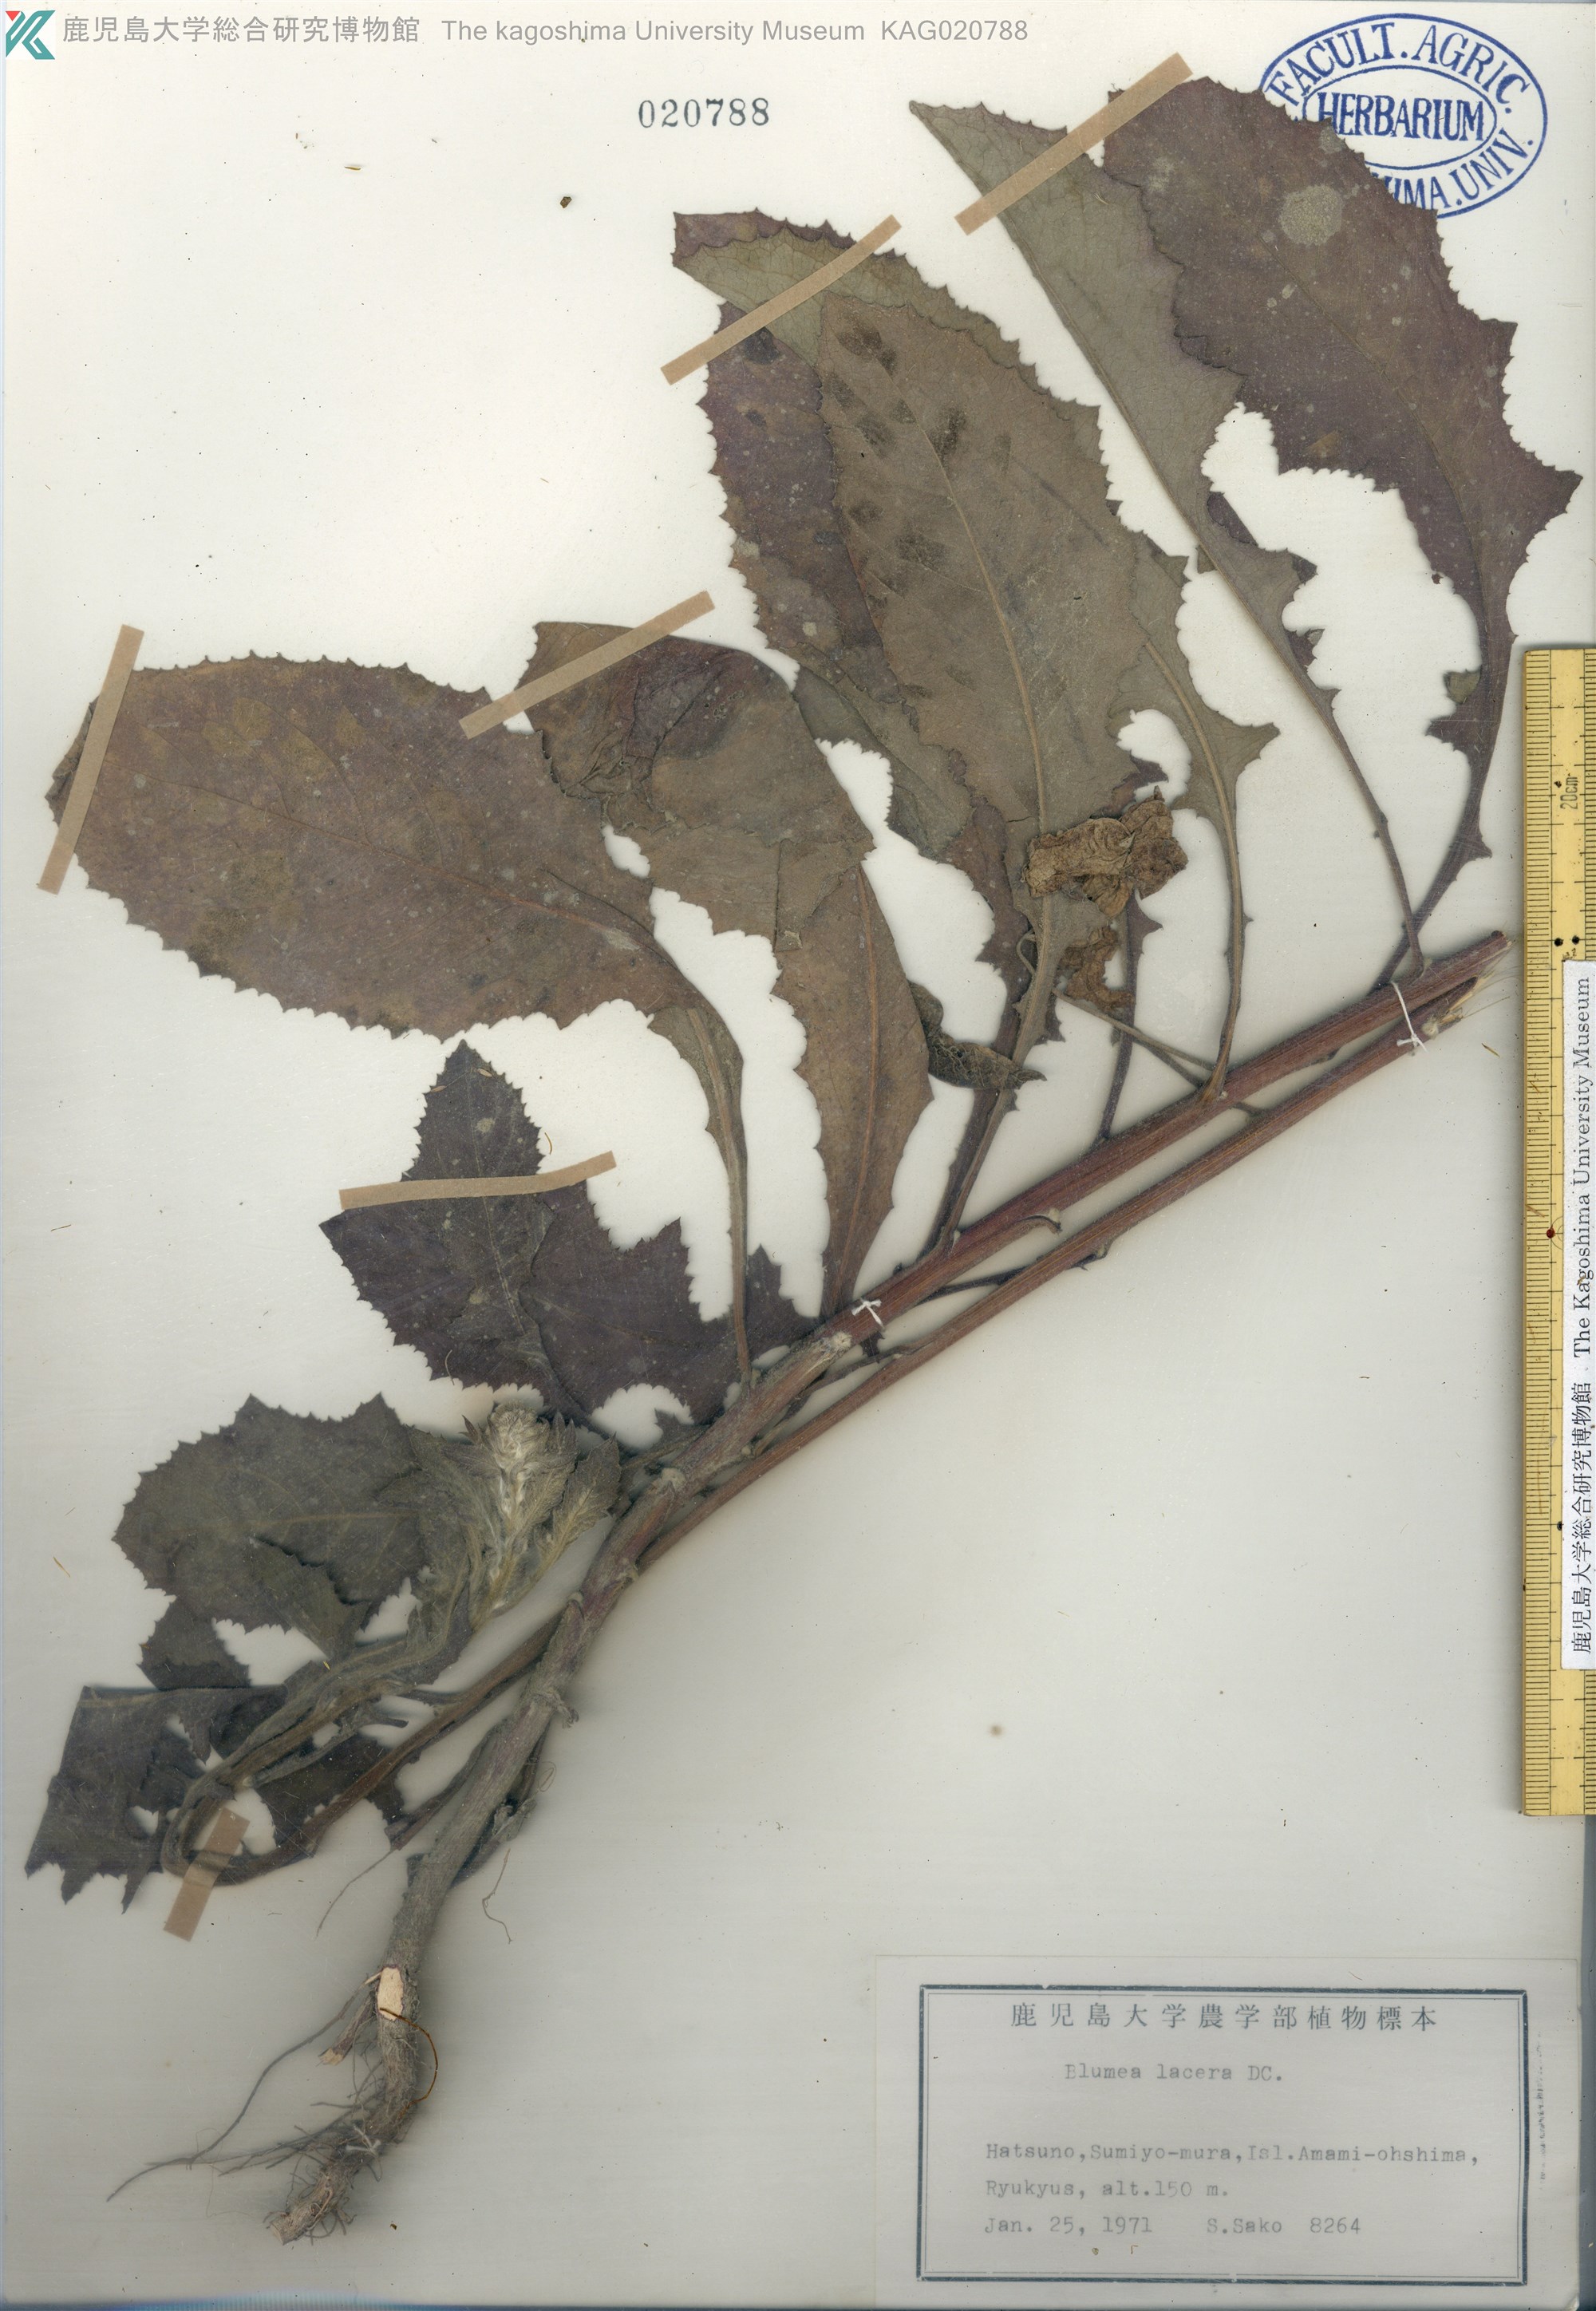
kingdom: Plantae
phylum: Tracheophyta
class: Magnoliopsida
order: Asterales
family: Asteraceae
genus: Blumea
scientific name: Blumea lacera
